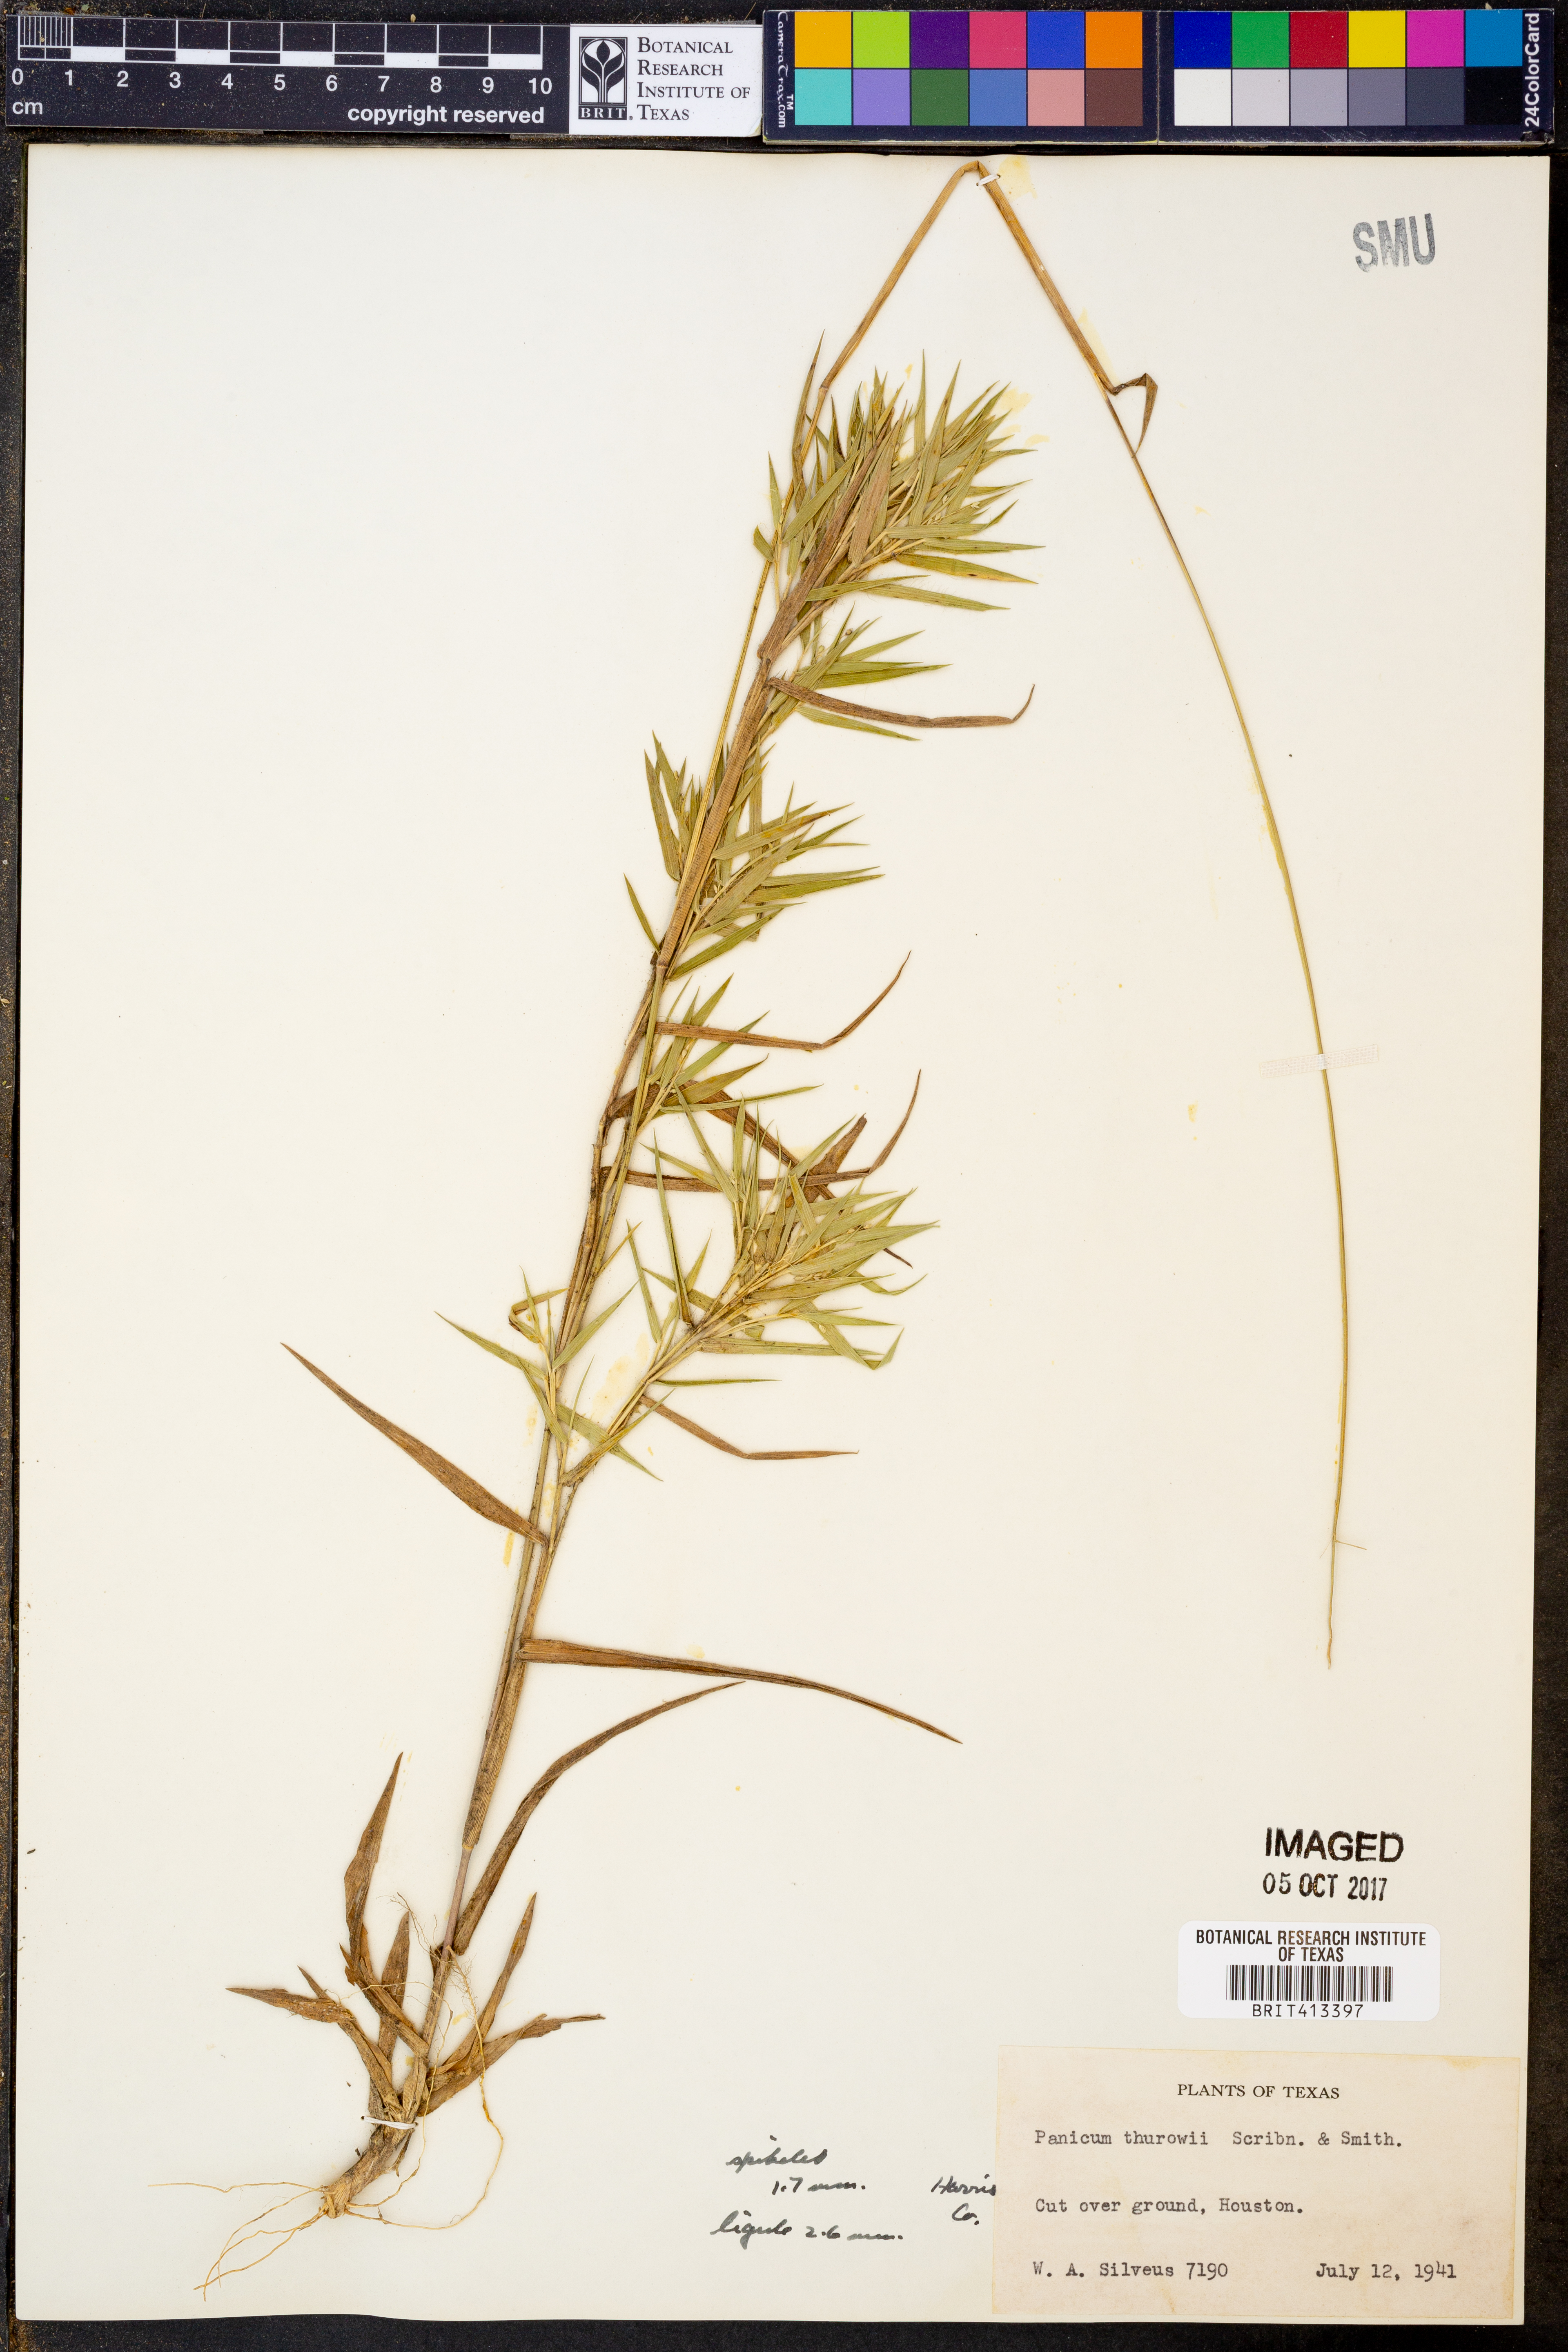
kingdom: Plantae
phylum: Tracheophyta
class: Liliopsida
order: Poales
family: Poaceae
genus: Dichanthelium
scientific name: Dichanthelium acuminatum
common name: Hairy panic grass
